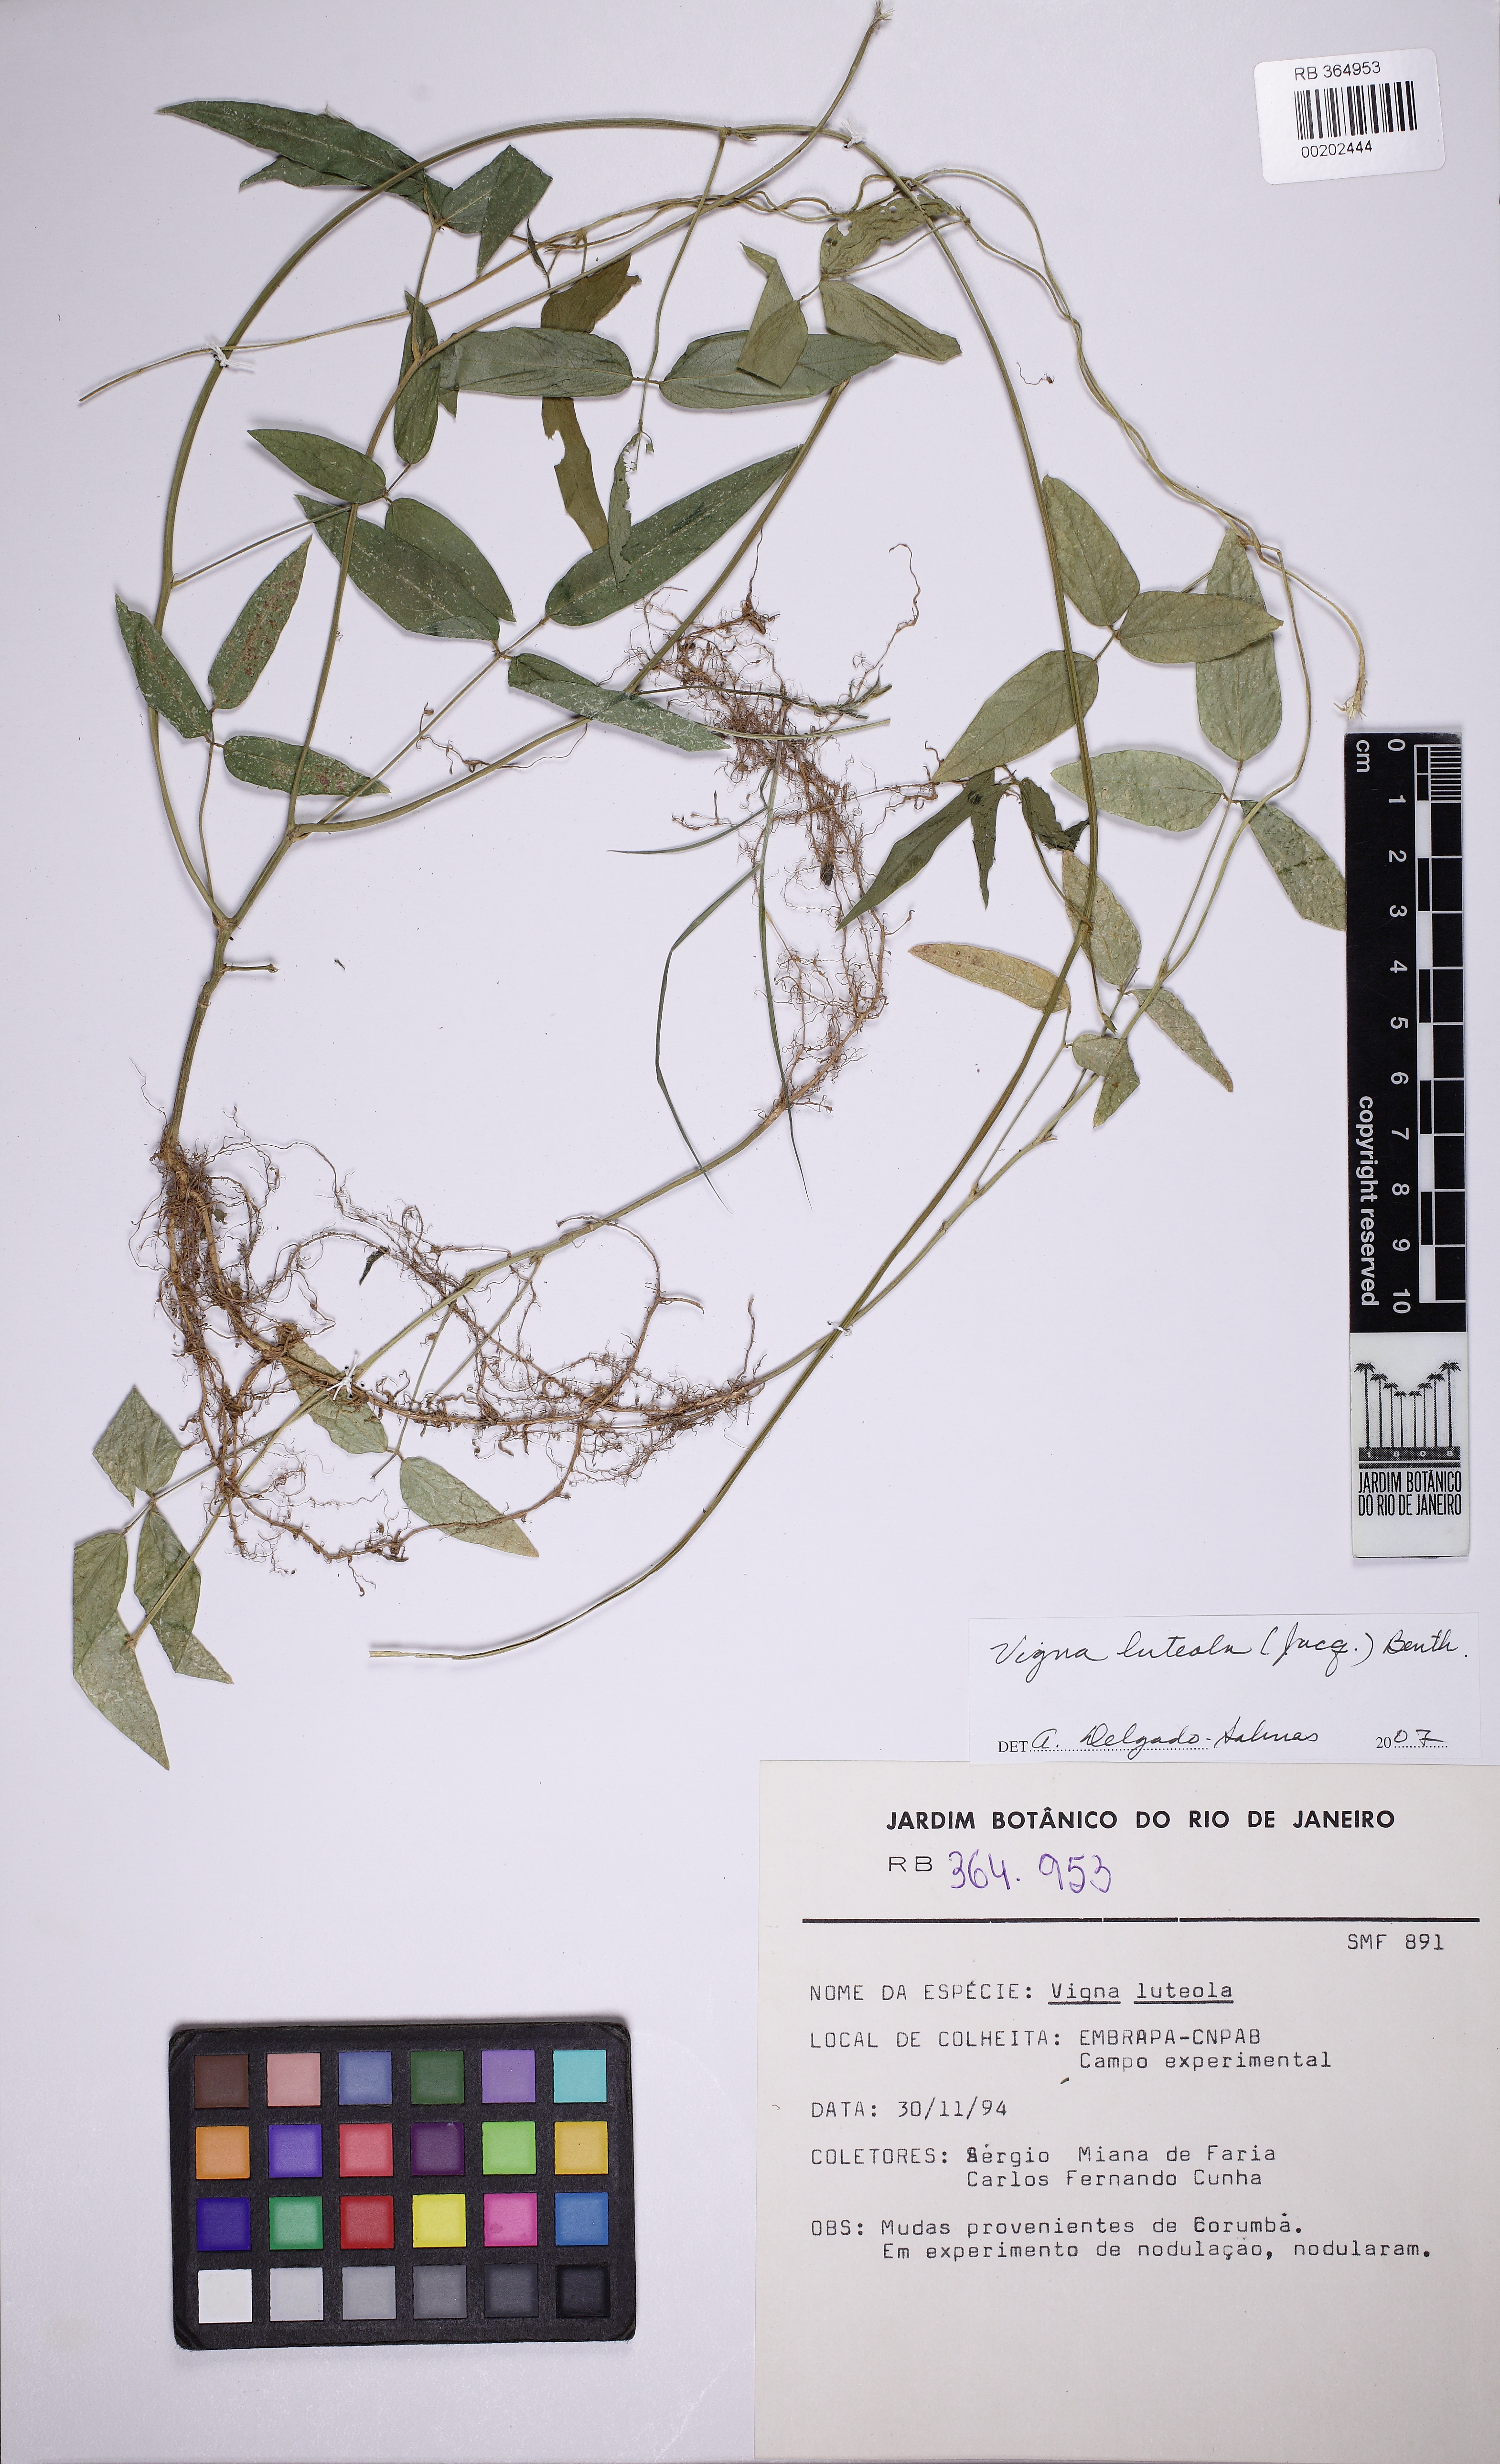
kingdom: Plantae
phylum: Tracheophyta
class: Magnoliopsida
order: Fabales
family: Fabaceae
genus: Vigna
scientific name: Vigna luteola
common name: Hairypod cowpea
